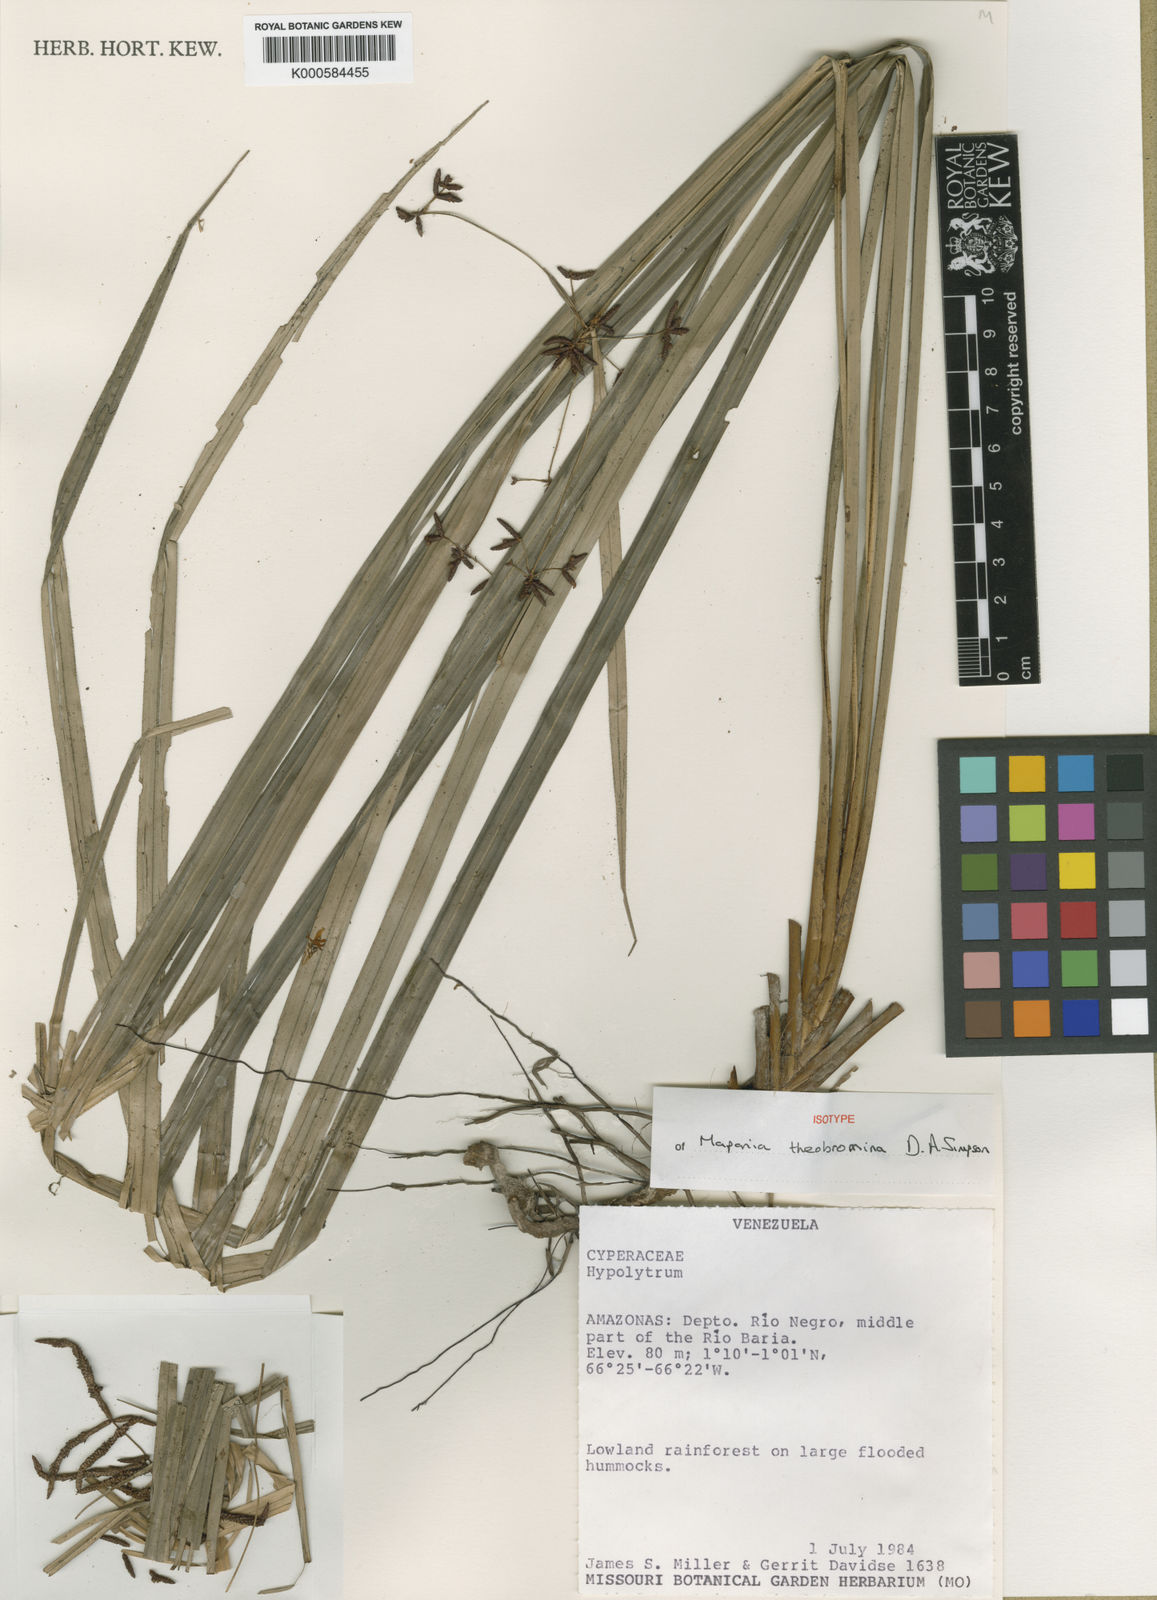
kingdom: Plantae
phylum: Tracheophyta
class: Liliopsida
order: Poales
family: Cyperaceae
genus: Mapania
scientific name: Mapania theobromina
